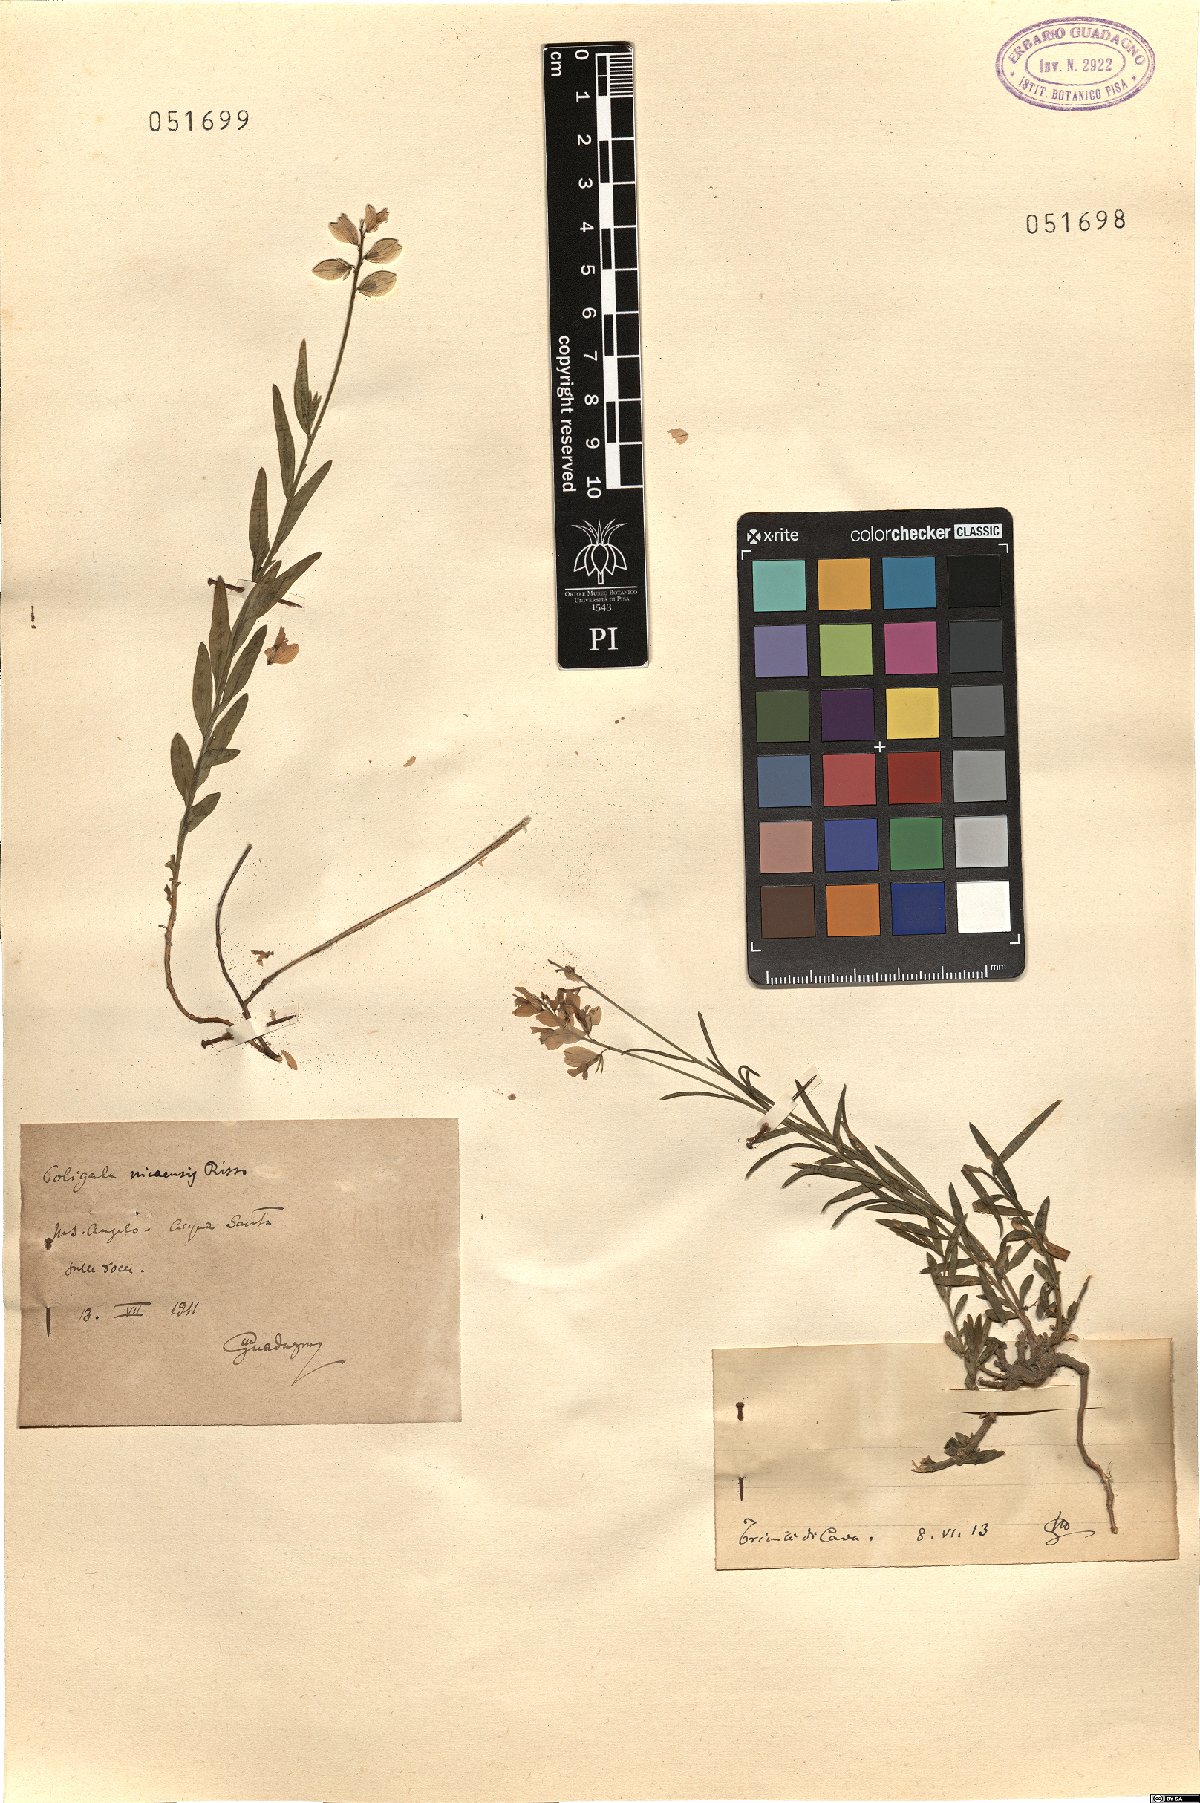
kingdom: Plantae
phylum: Tracheophyta
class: Magnoliopsida
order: Fabales
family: Polygalaceae
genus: Polygala
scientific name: Polygala
